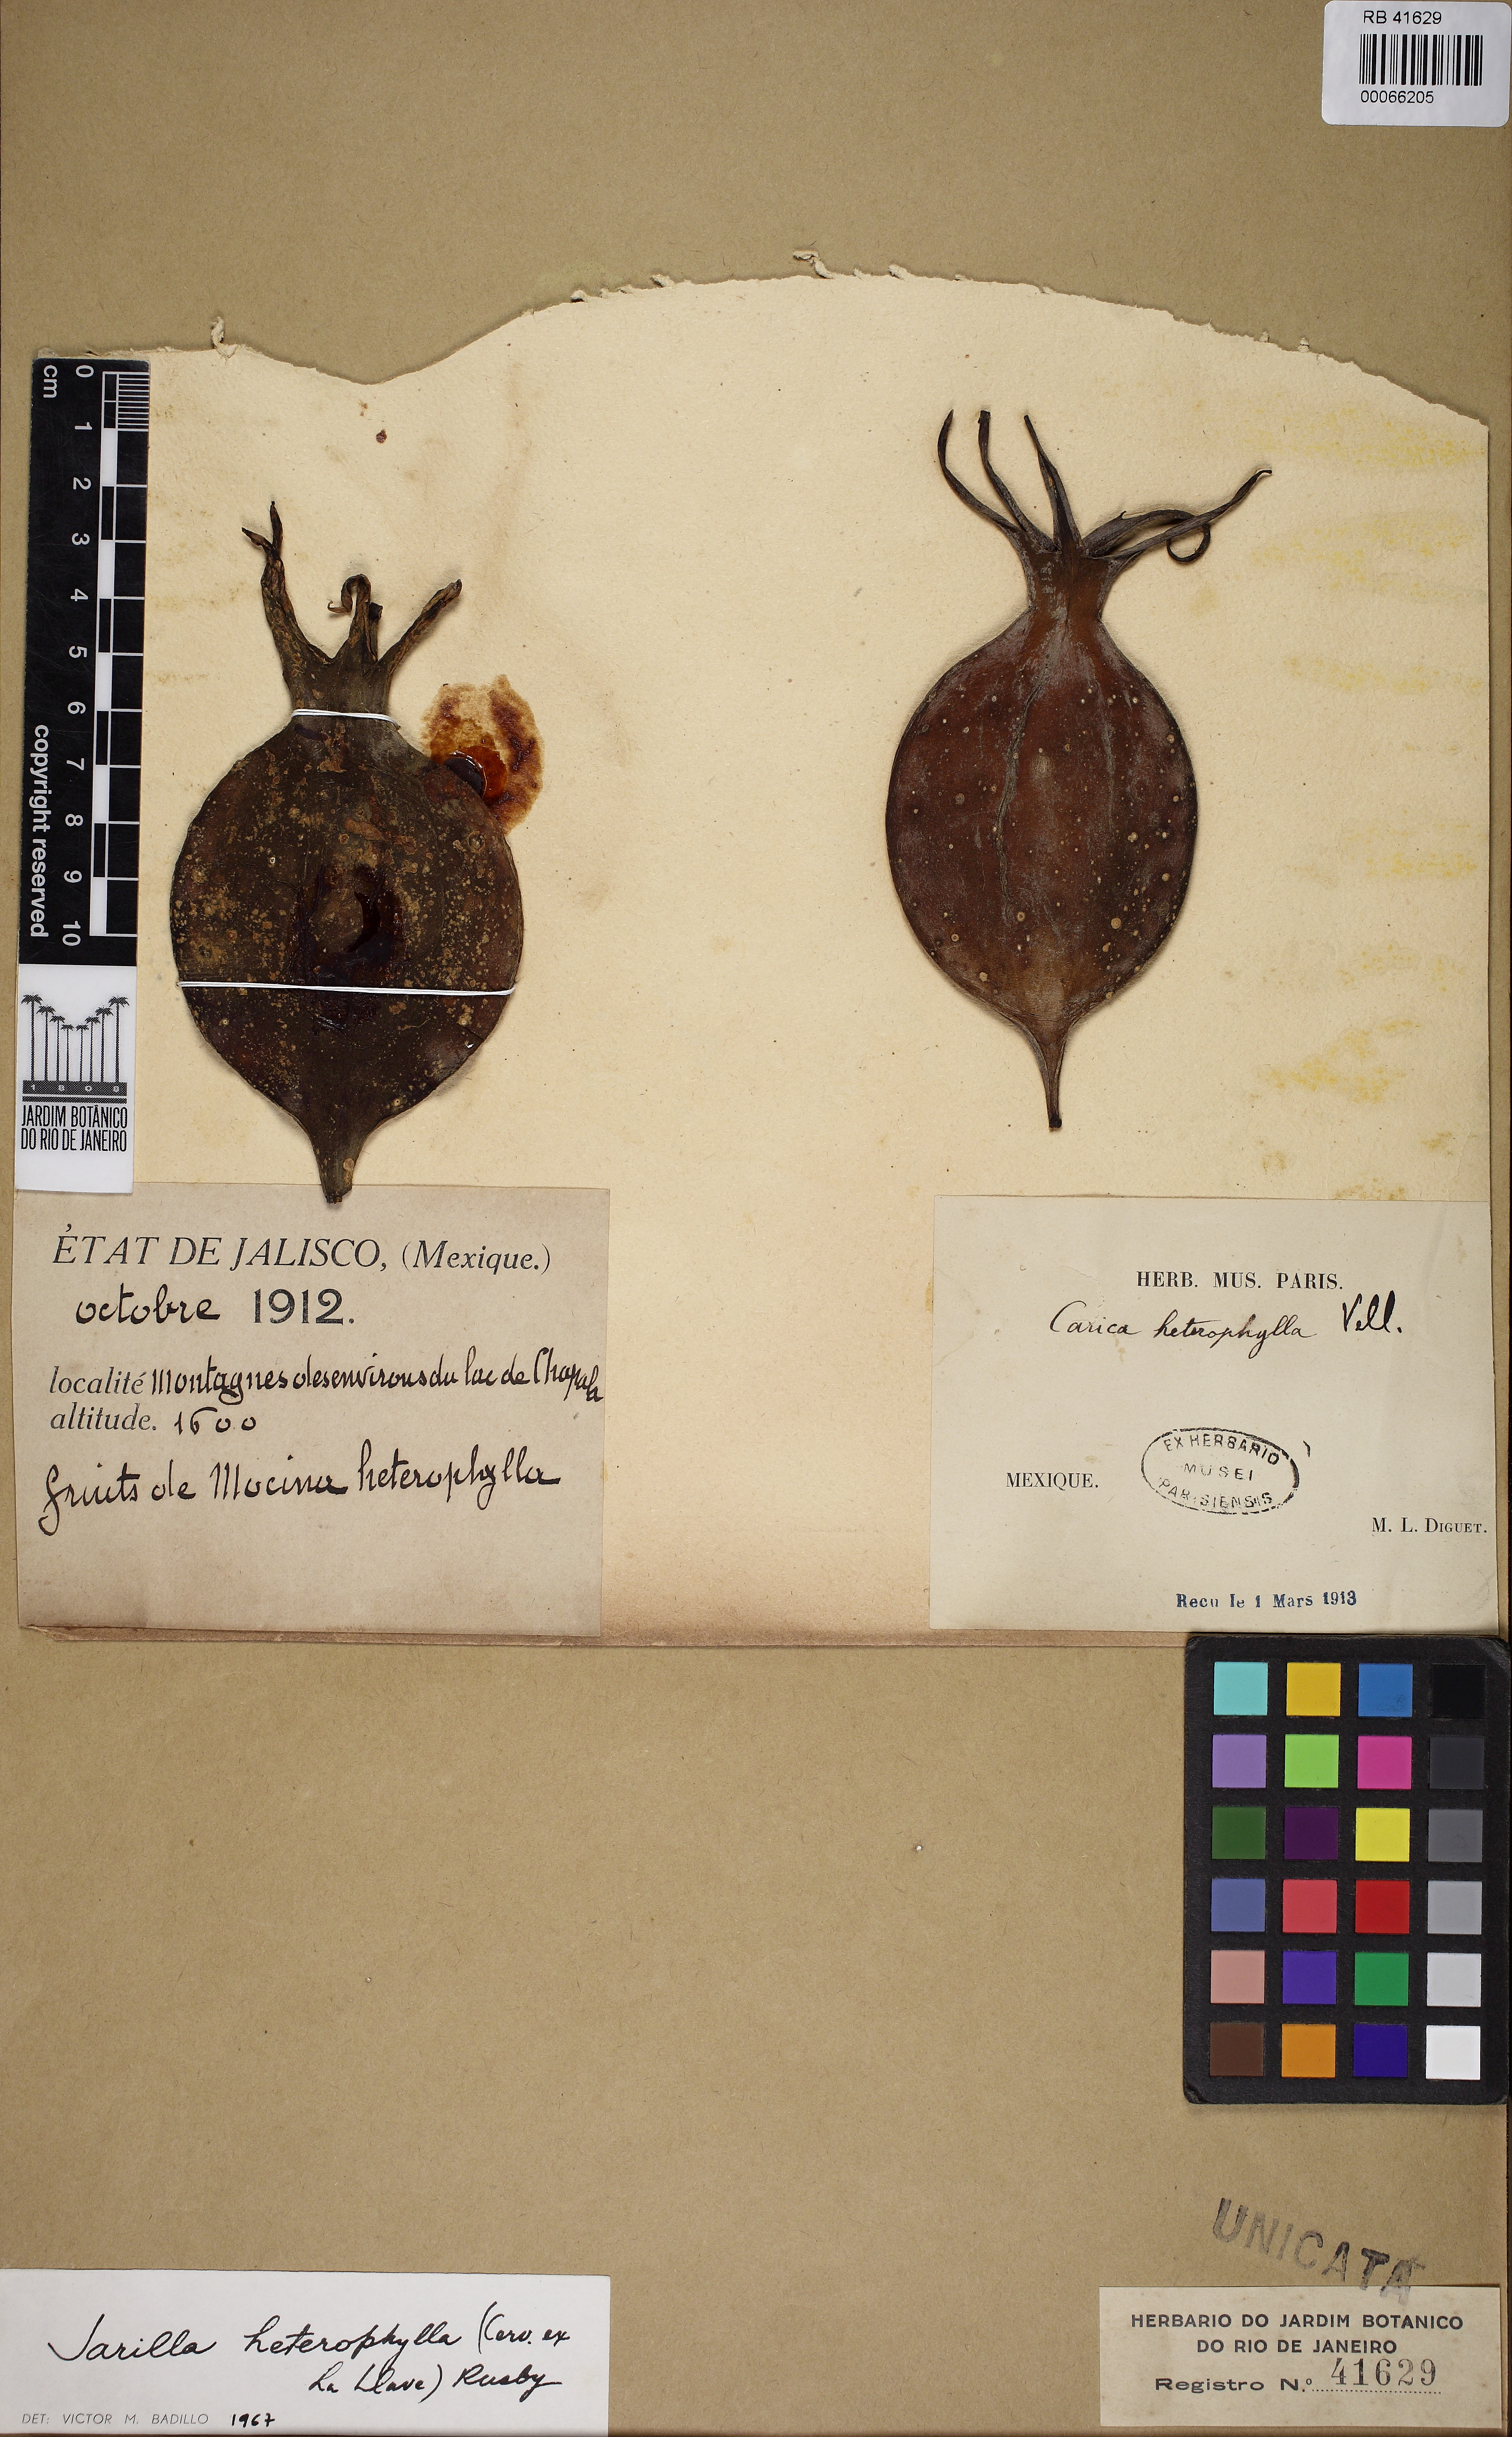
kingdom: Plantae
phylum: Tracheophyta
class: Magnoliopsida
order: Brassicales
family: Caricaceae
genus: Jarilla
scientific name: Jarilla heterophylla
